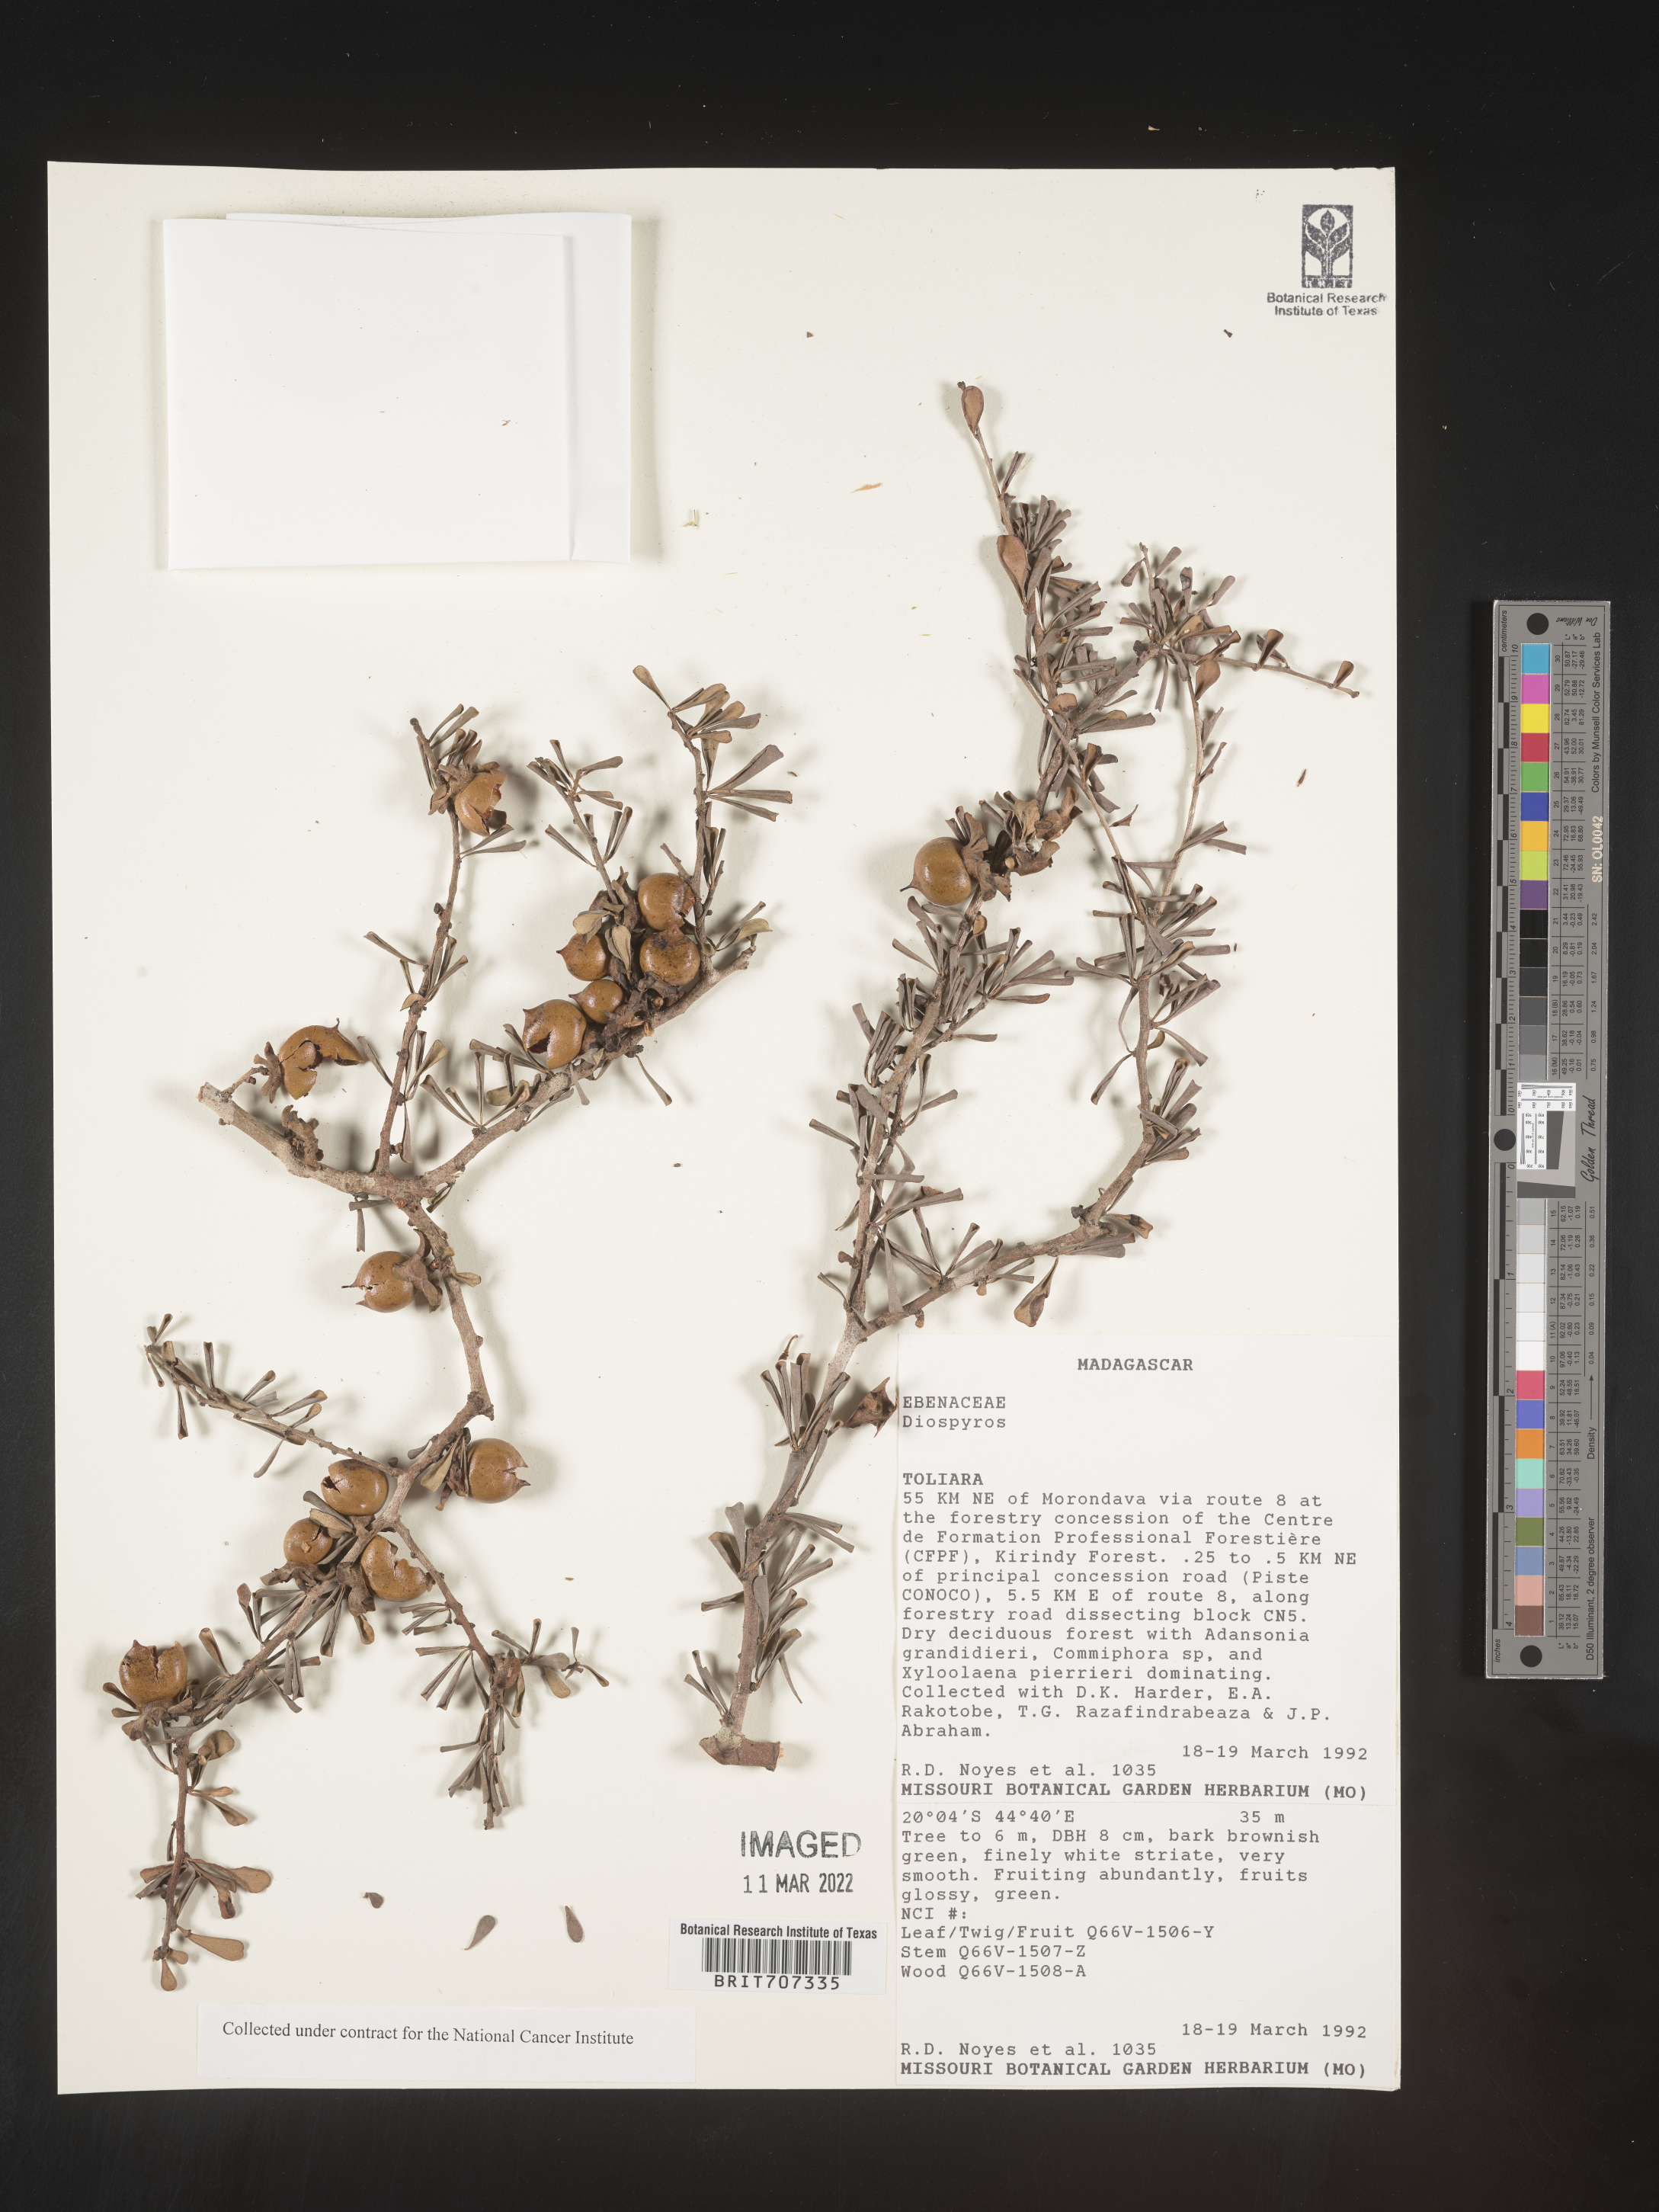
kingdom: Plantae
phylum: Tracheophyta
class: Magnoliopsida
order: Ericales
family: Ebenaceae
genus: Diospyros
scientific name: Diospyros
